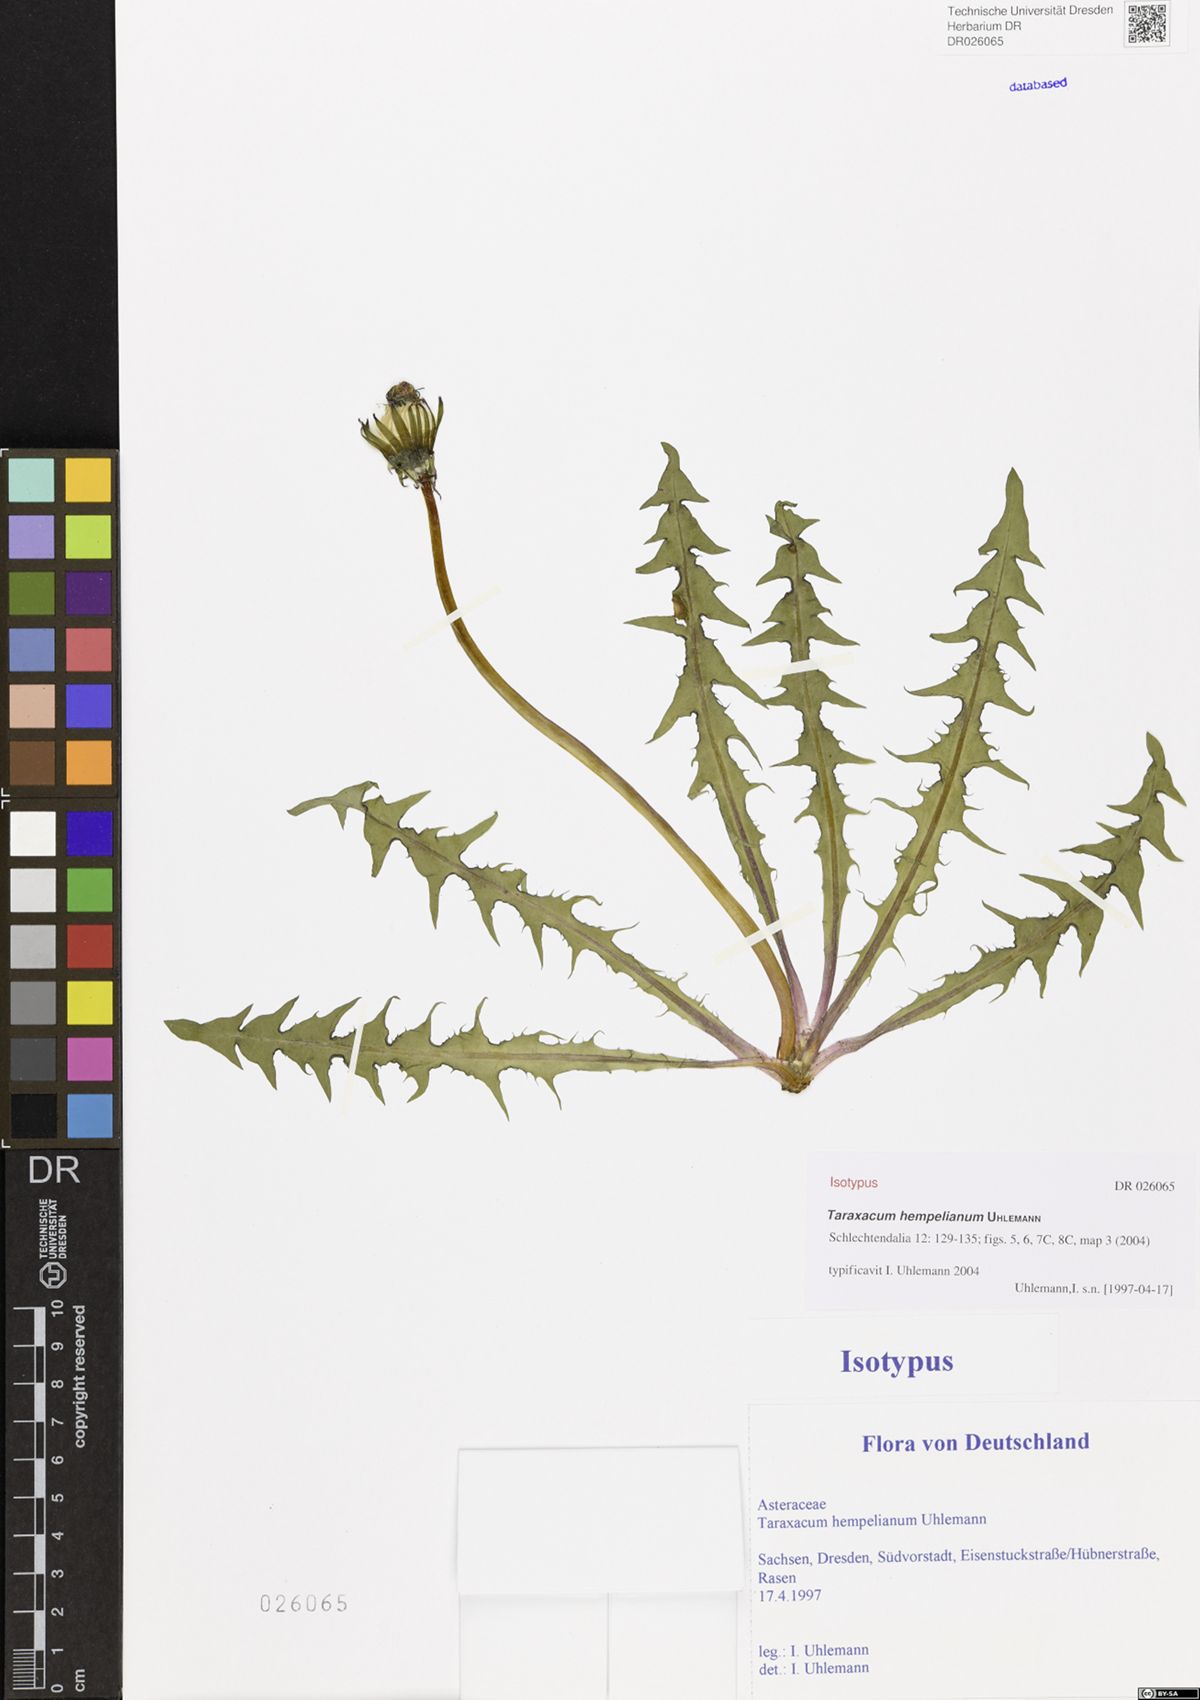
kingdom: Plantae
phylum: Tracheophyta
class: Magnoliopsida
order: Asterales
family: Asteraceae
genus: Taraxacum
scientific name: Taraxacum hempelianum
